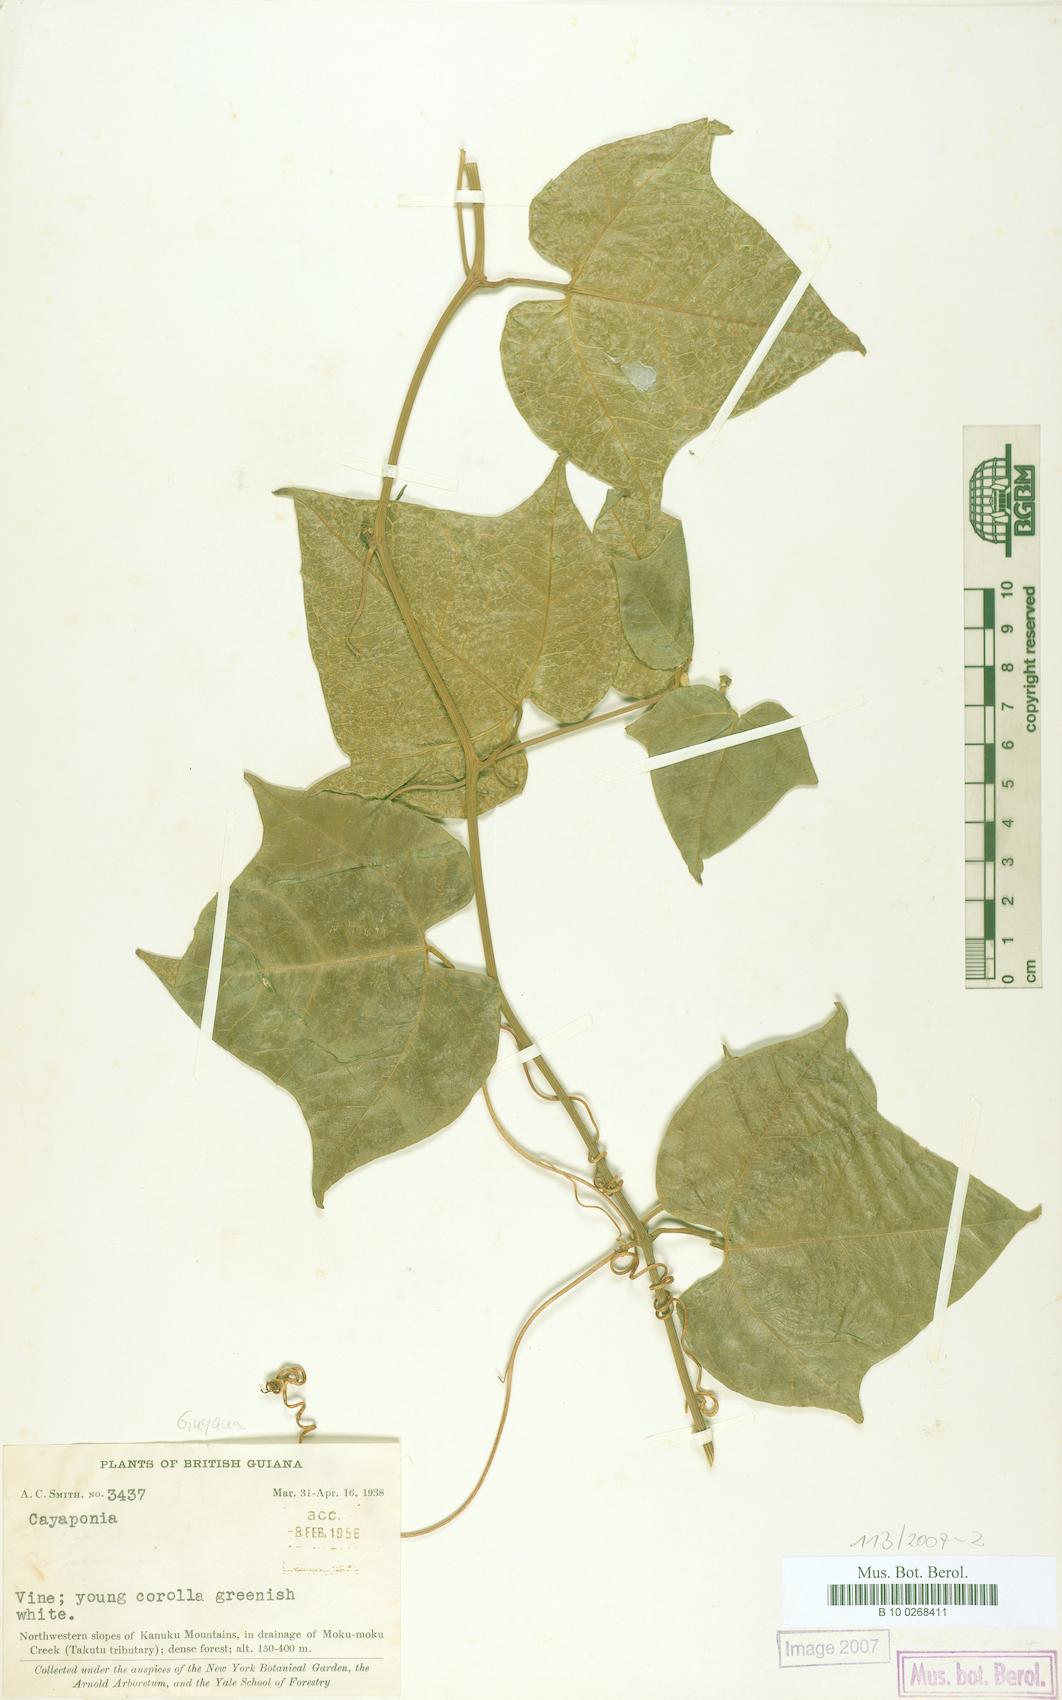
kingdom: Plantae
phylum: Tracheophyta
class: Magnoliopsida
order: Cucurbitales
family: Cucurbitaceae
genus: Cayaponia
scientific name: Cayaponia selysioides
